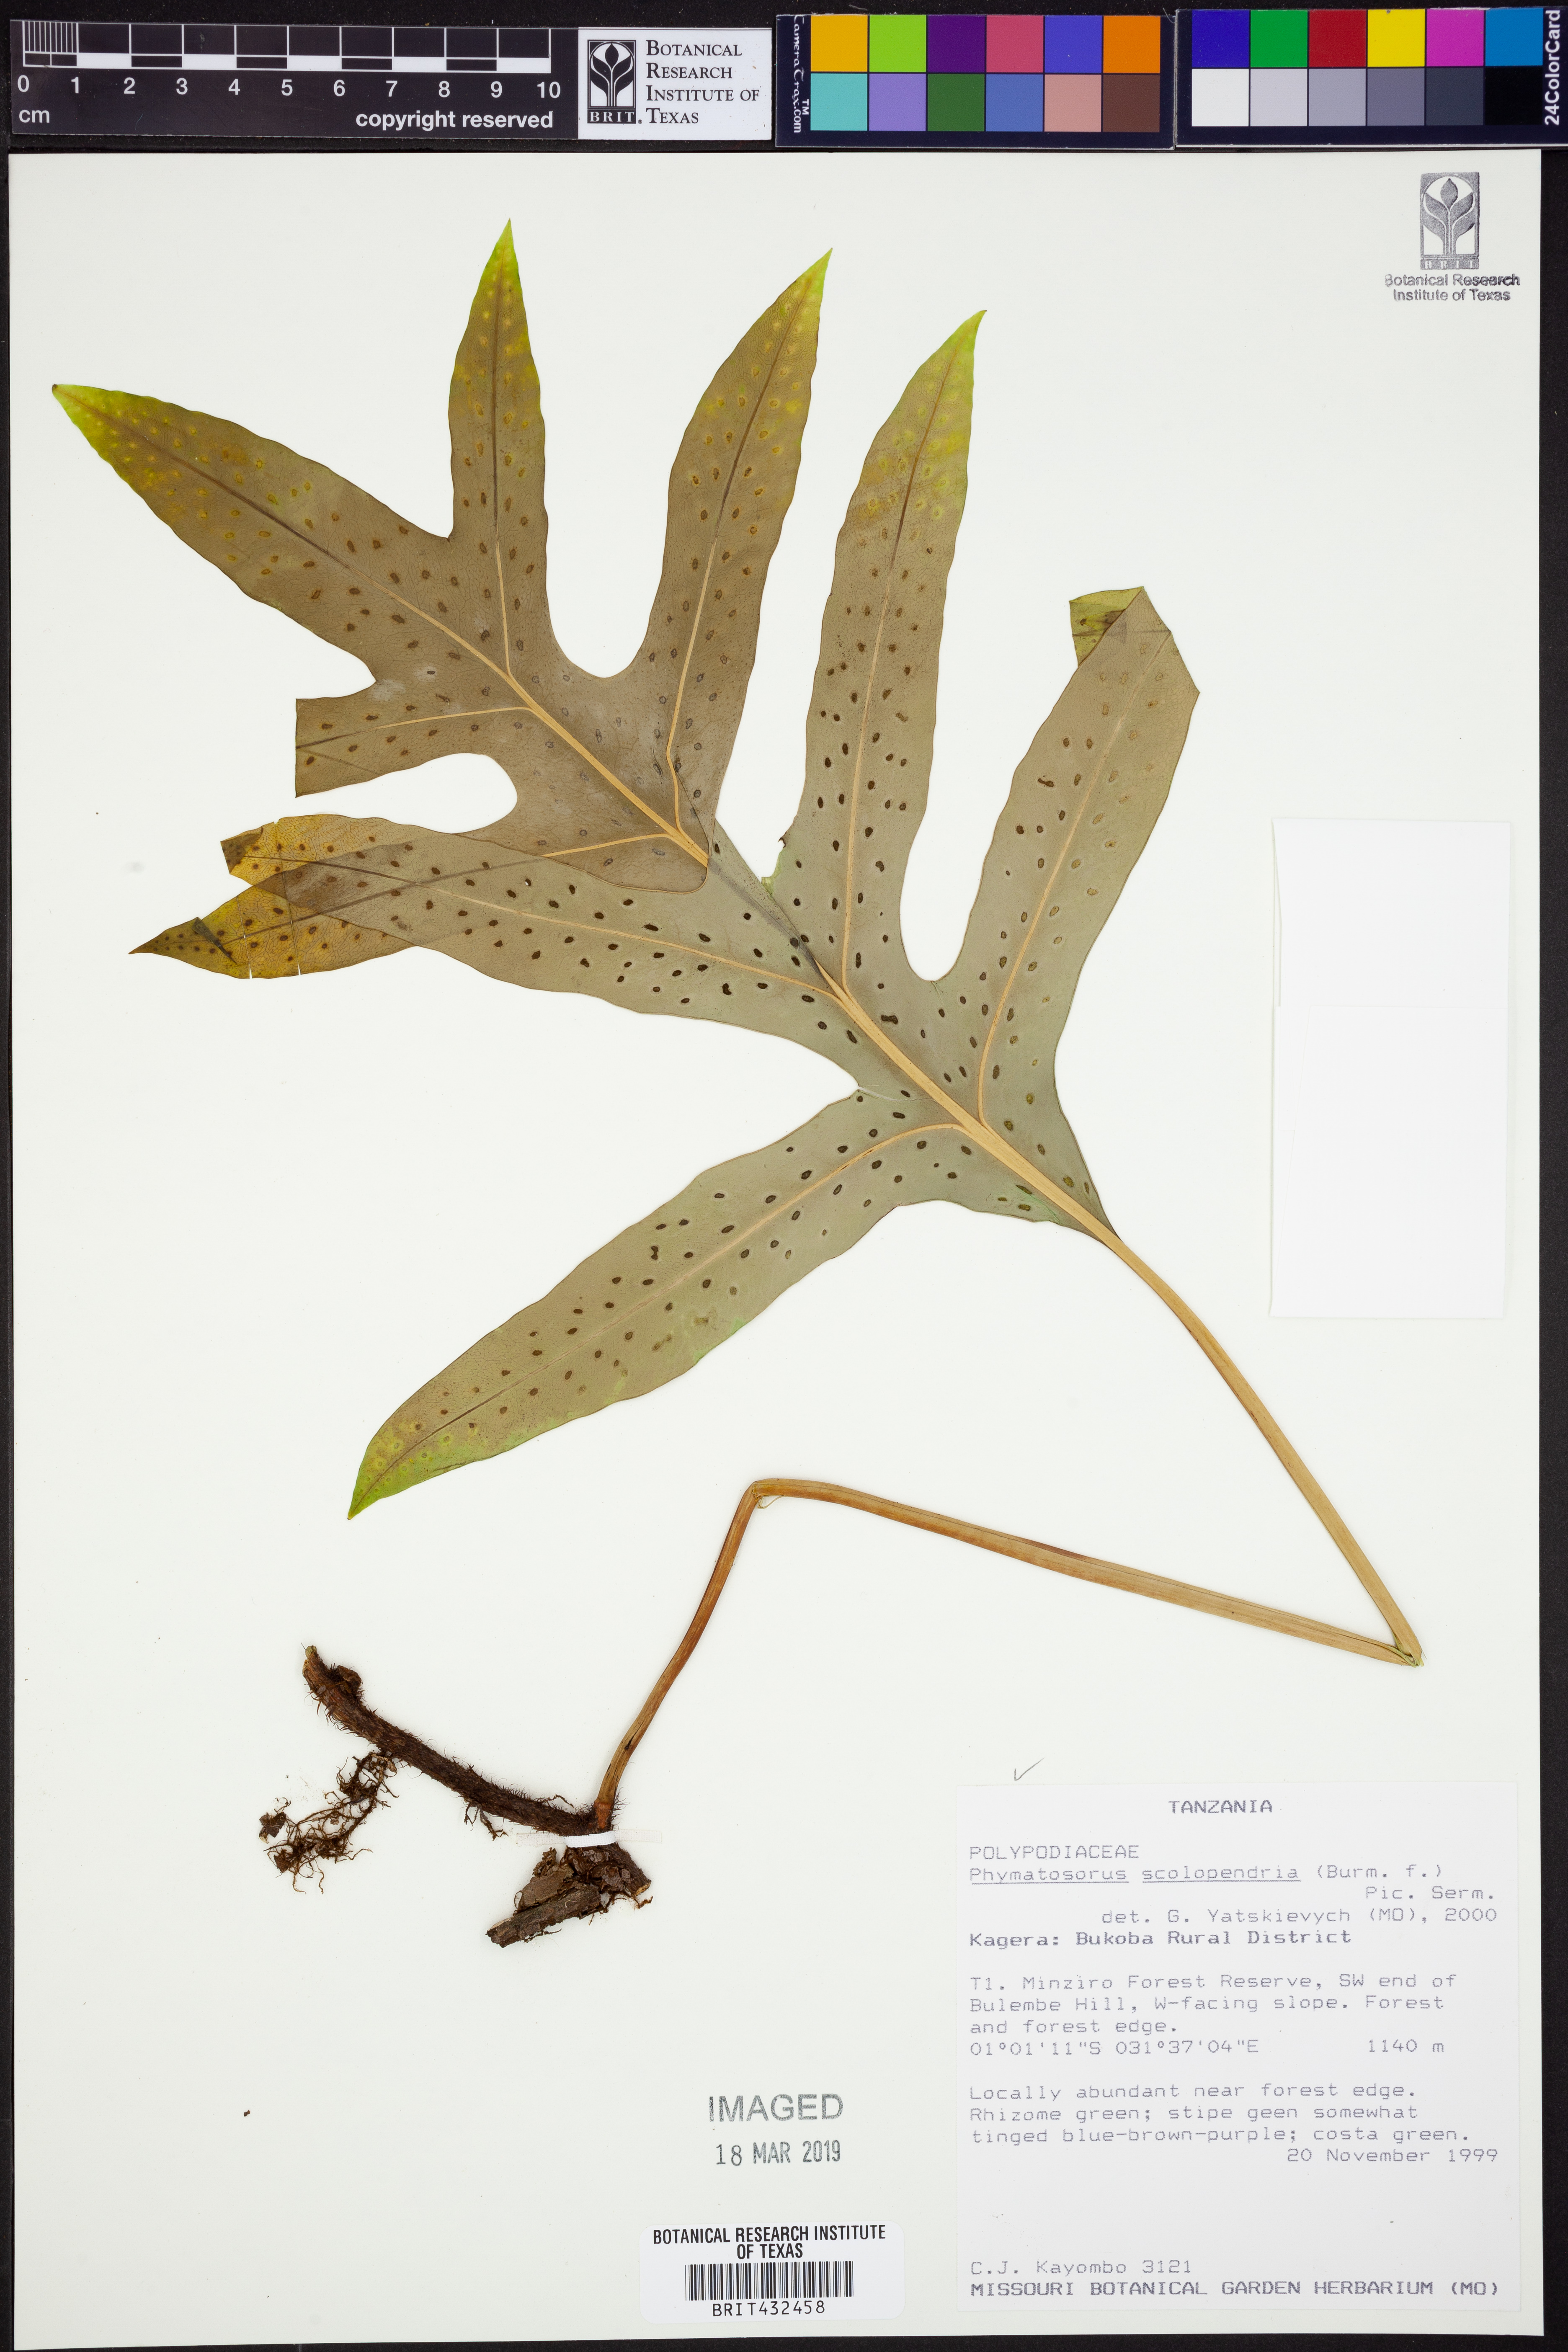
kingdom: Plantae
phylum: Tracheophyta
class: Polypodiopsida
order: Polypodiales
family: Polypodiaceae
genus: Microsorum
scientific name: Microsorum scolopendria
